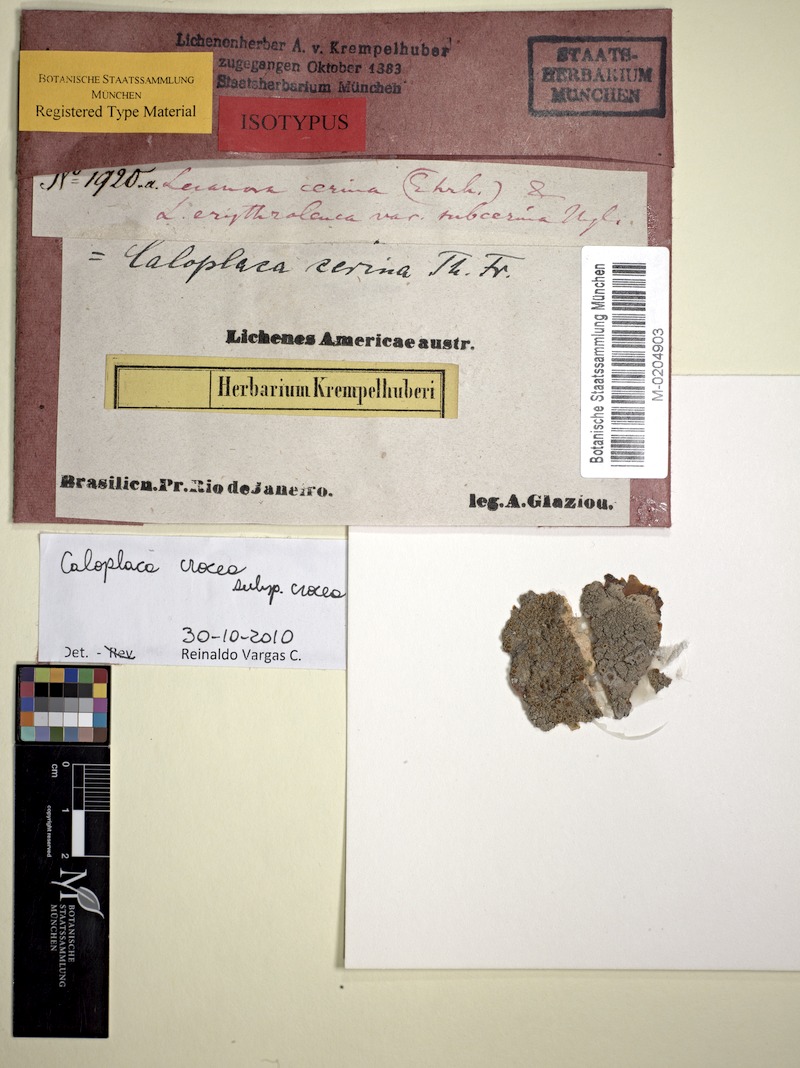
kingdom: Fungi
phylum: Ascomycota
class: Lecanoromycetes
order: Teloschistales
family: Teloschistaceae
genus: Caloplaca
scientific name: Caloplaca crocea
